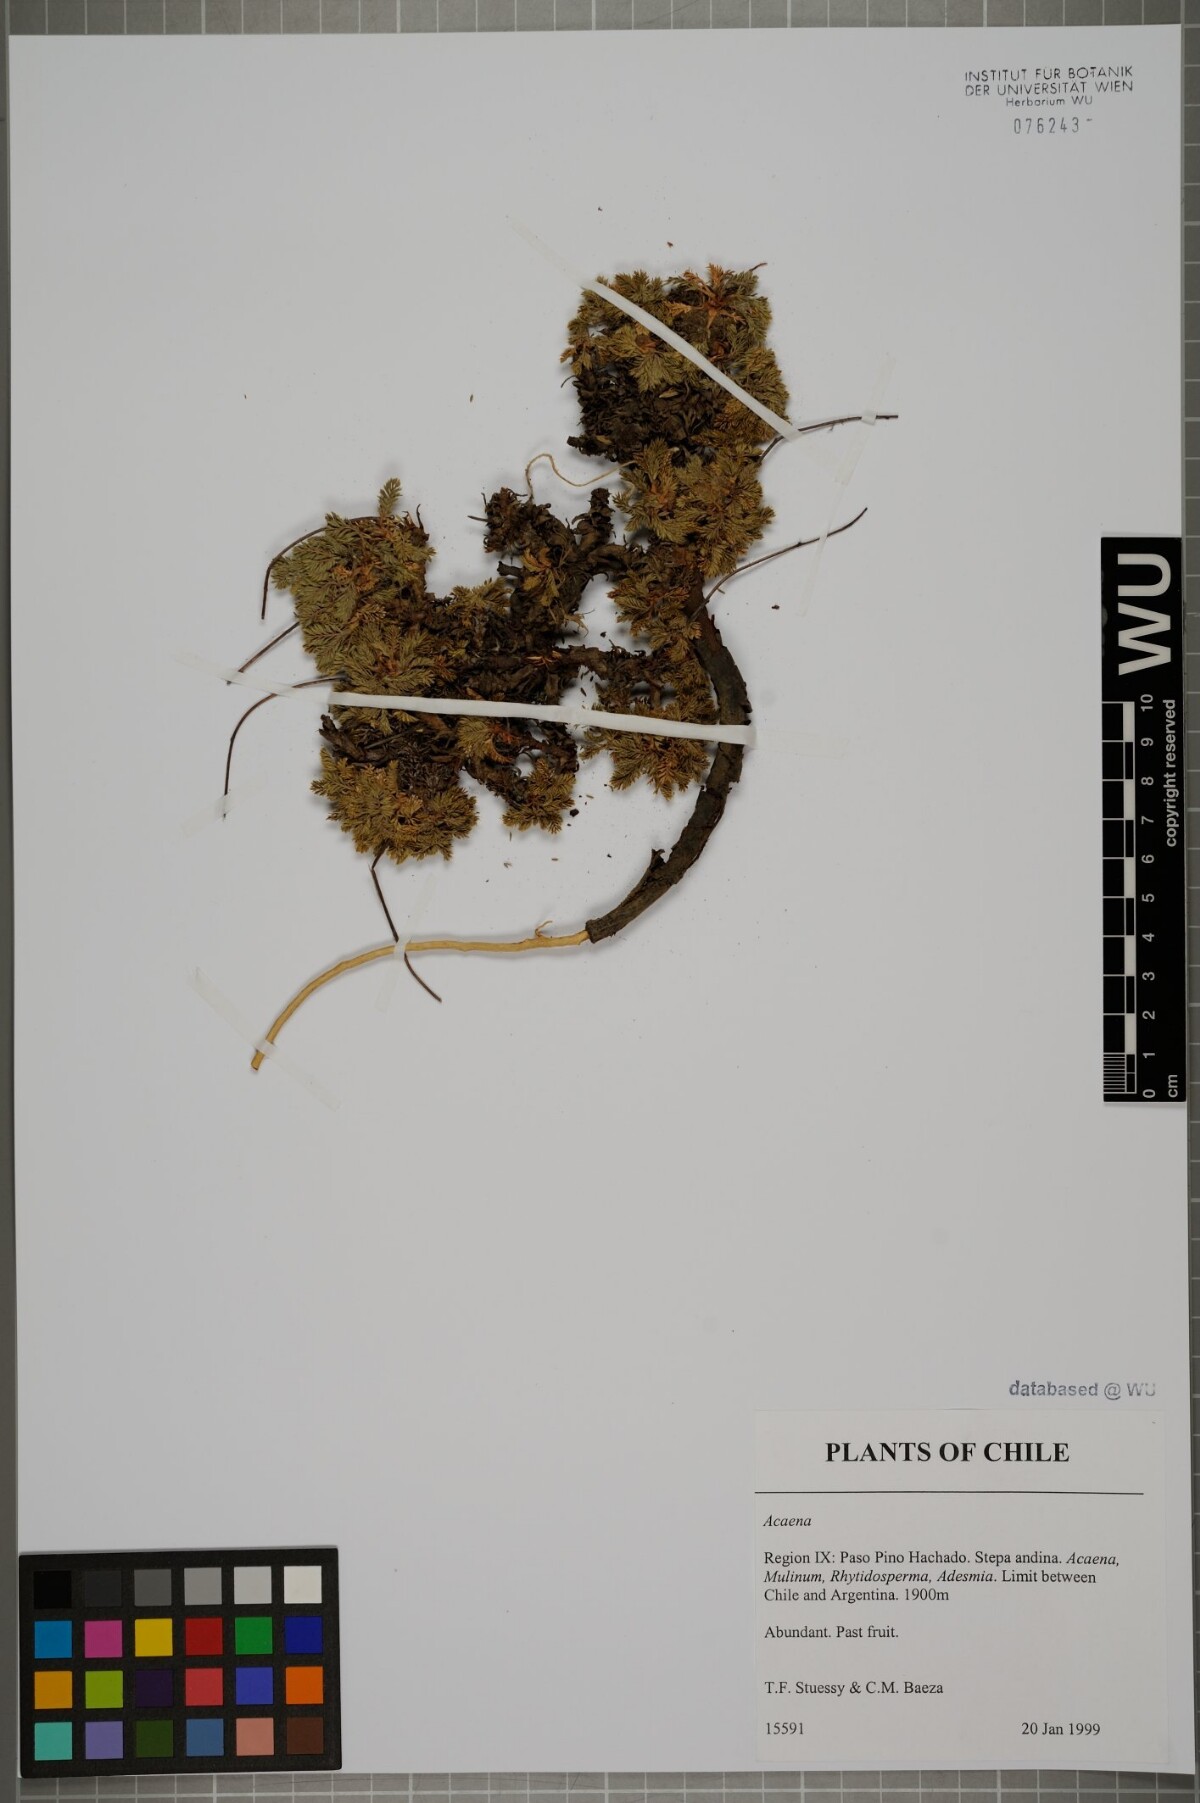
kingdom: Plantae
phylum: Tracheophyta
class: Magnoliopsida
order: Rosales
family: Rosaceae
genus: Acaena
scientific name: Acaena
